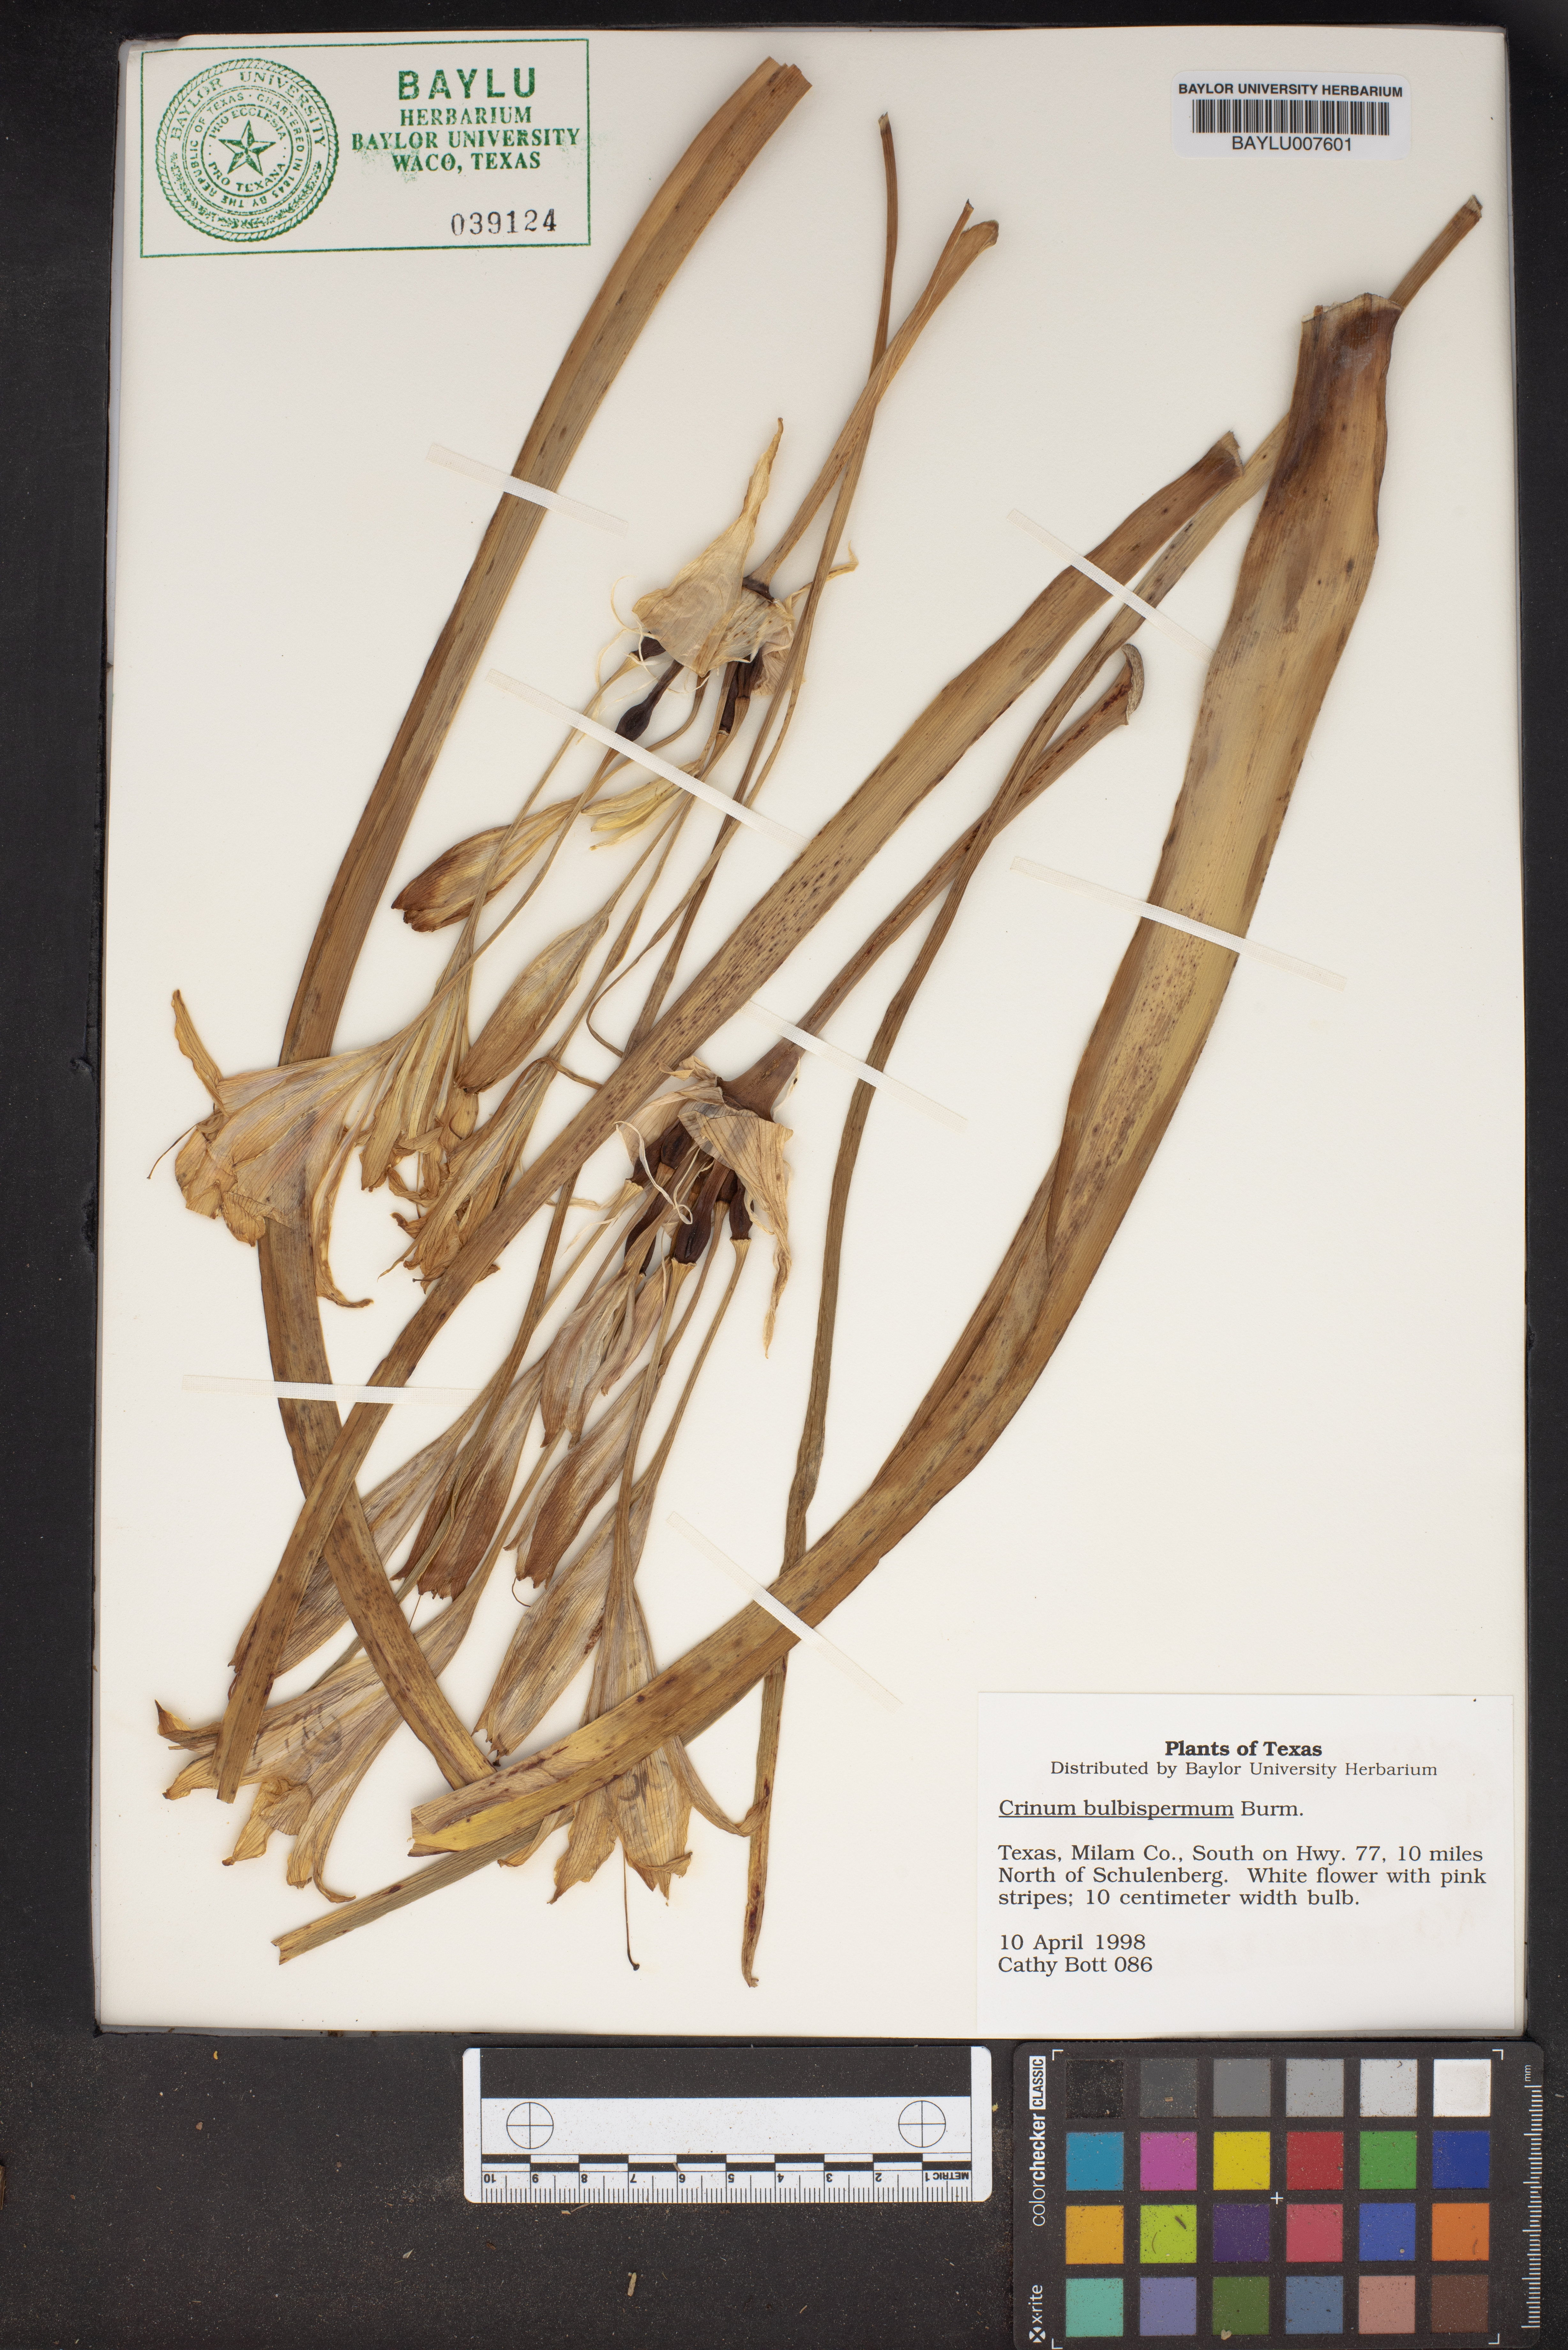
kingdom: Plantae
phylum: Tracheophyta
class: Liliopsida
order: Asparagales
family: Amaryllidaceae
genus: Crinum
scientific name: Crinum bulbispermum
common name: Hardy swamplily
